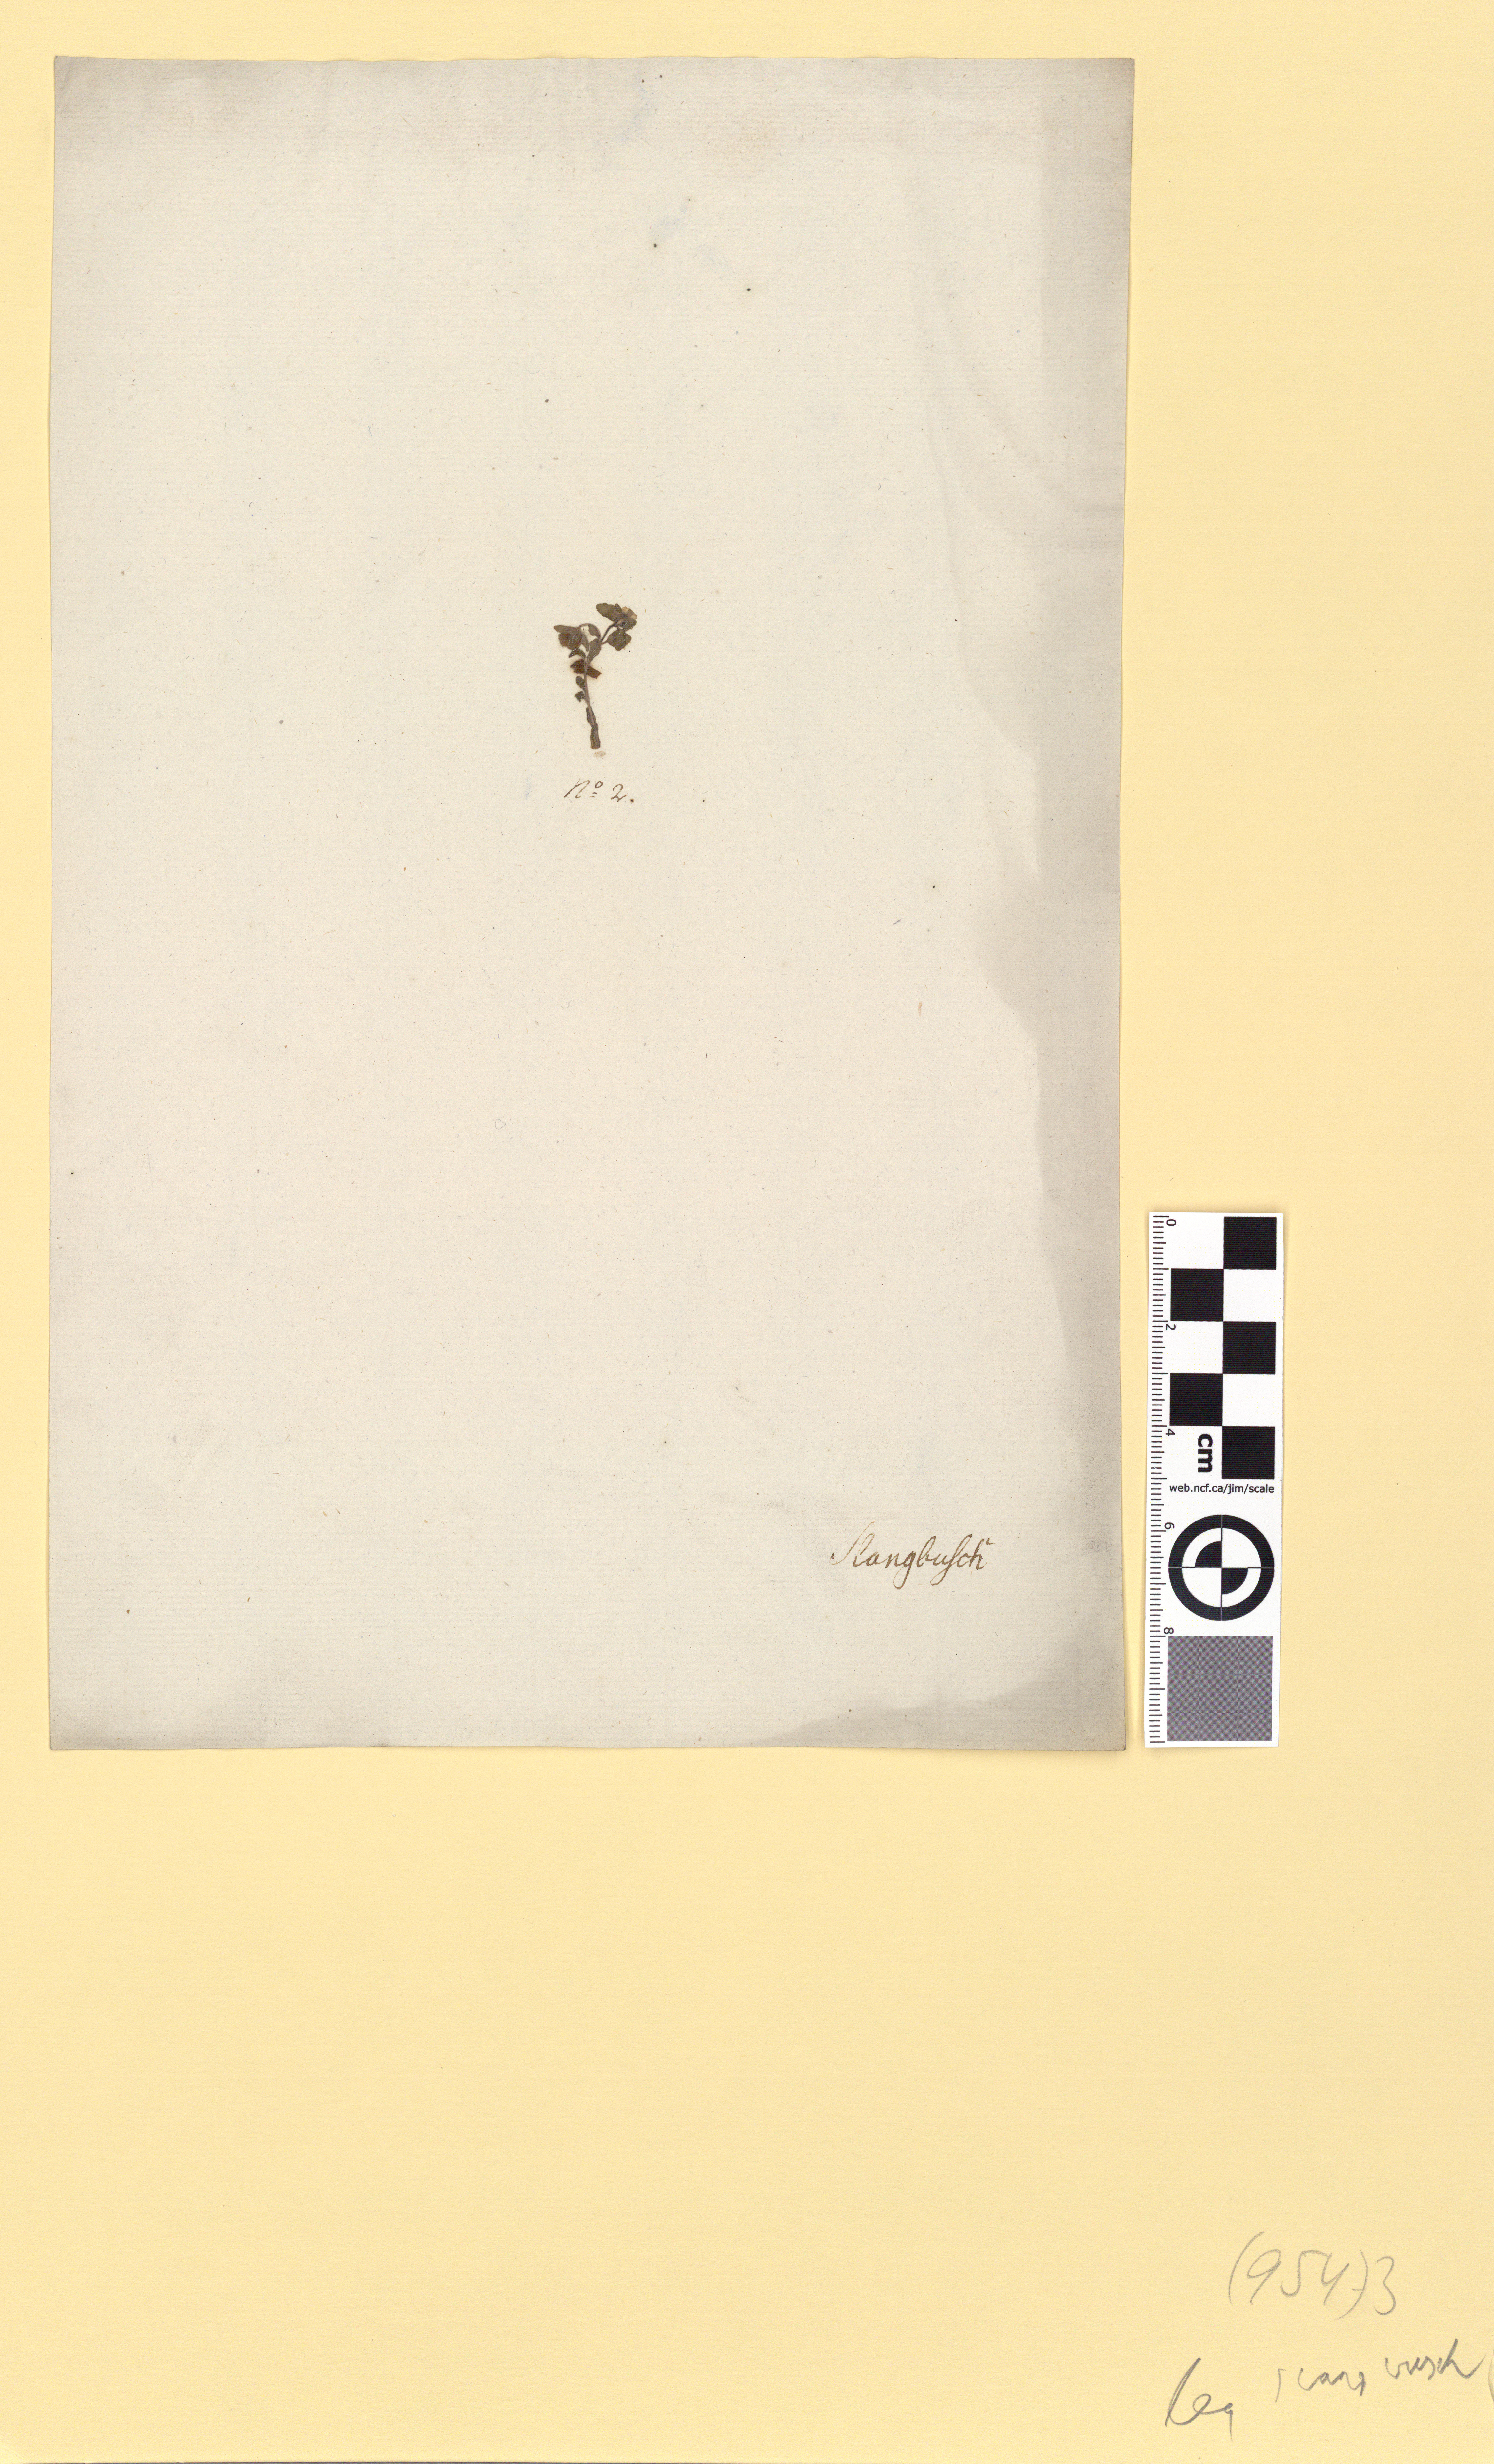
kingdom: Plantae
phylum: Tracheophyta
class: Magnoliopsida
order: Lamiales
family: Plantaginaceae
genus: Veronica
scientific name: Veronica agrestis
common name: Green field-speedwell
